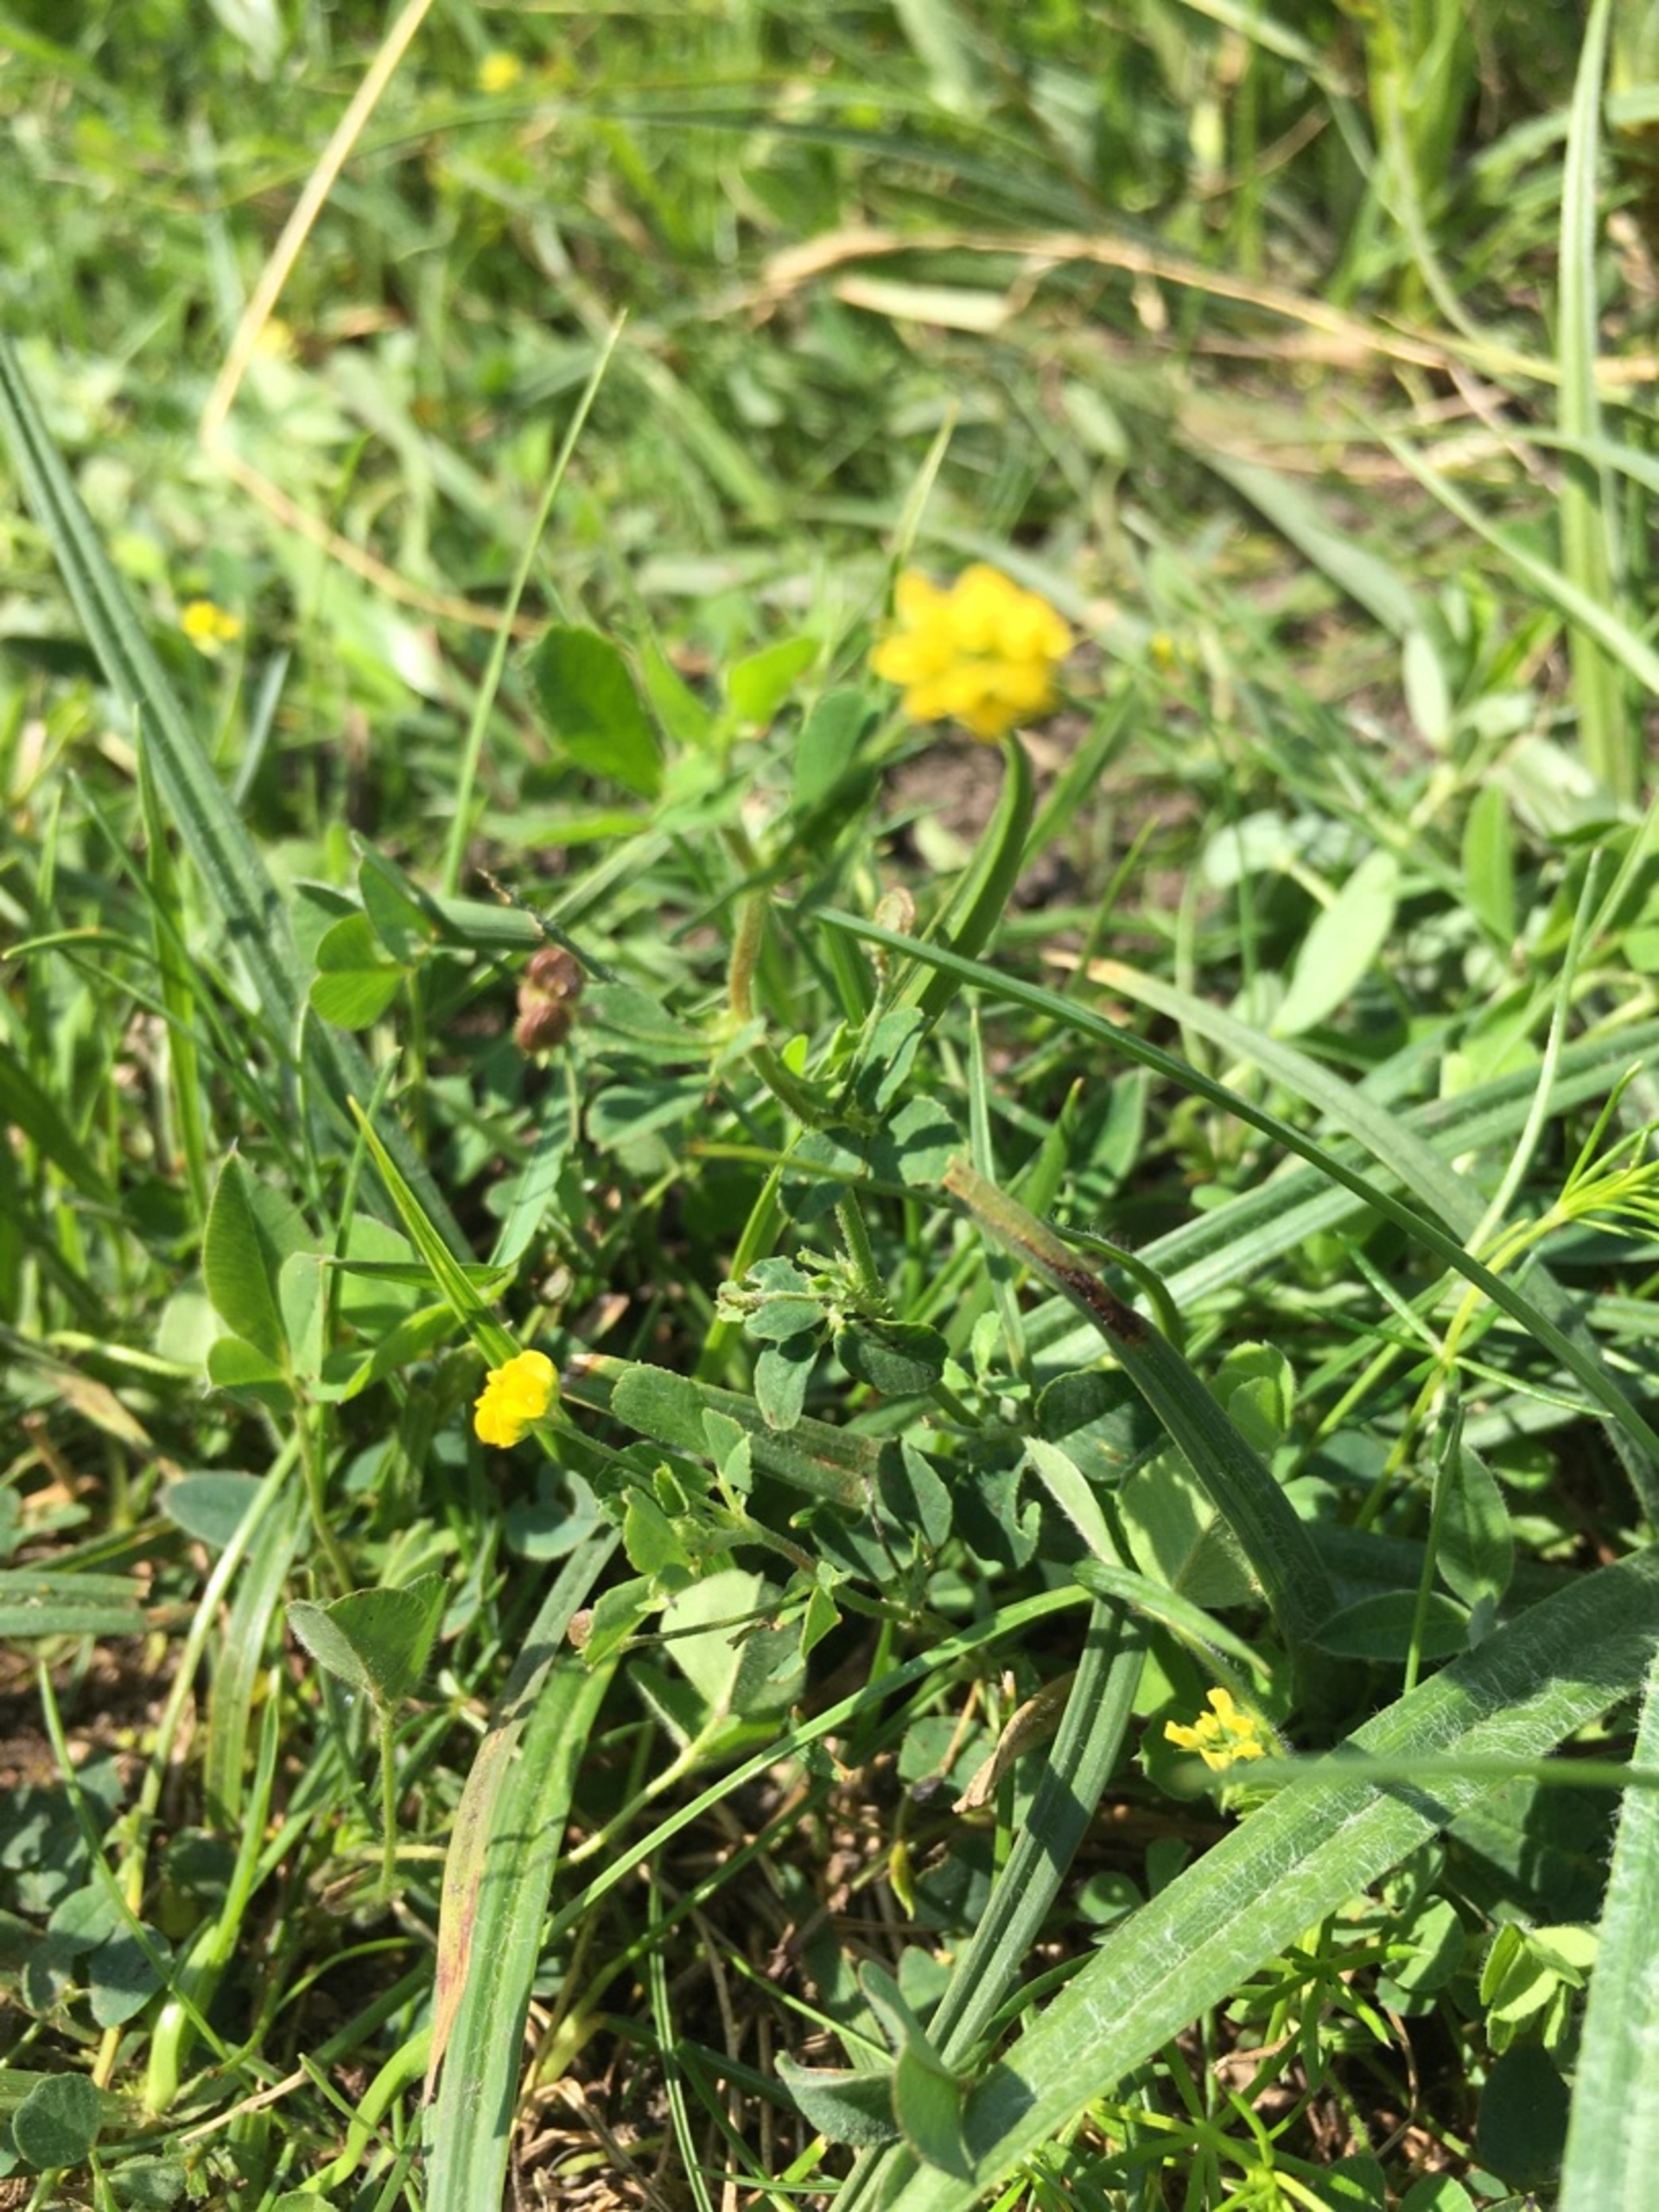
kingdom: Plantae
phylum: Tracheophyta
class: Magnoliopsida
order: Fabales
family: Fabaceae
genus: Medicago
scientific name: Medicago lupulina
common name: Humle-sneglebælg
